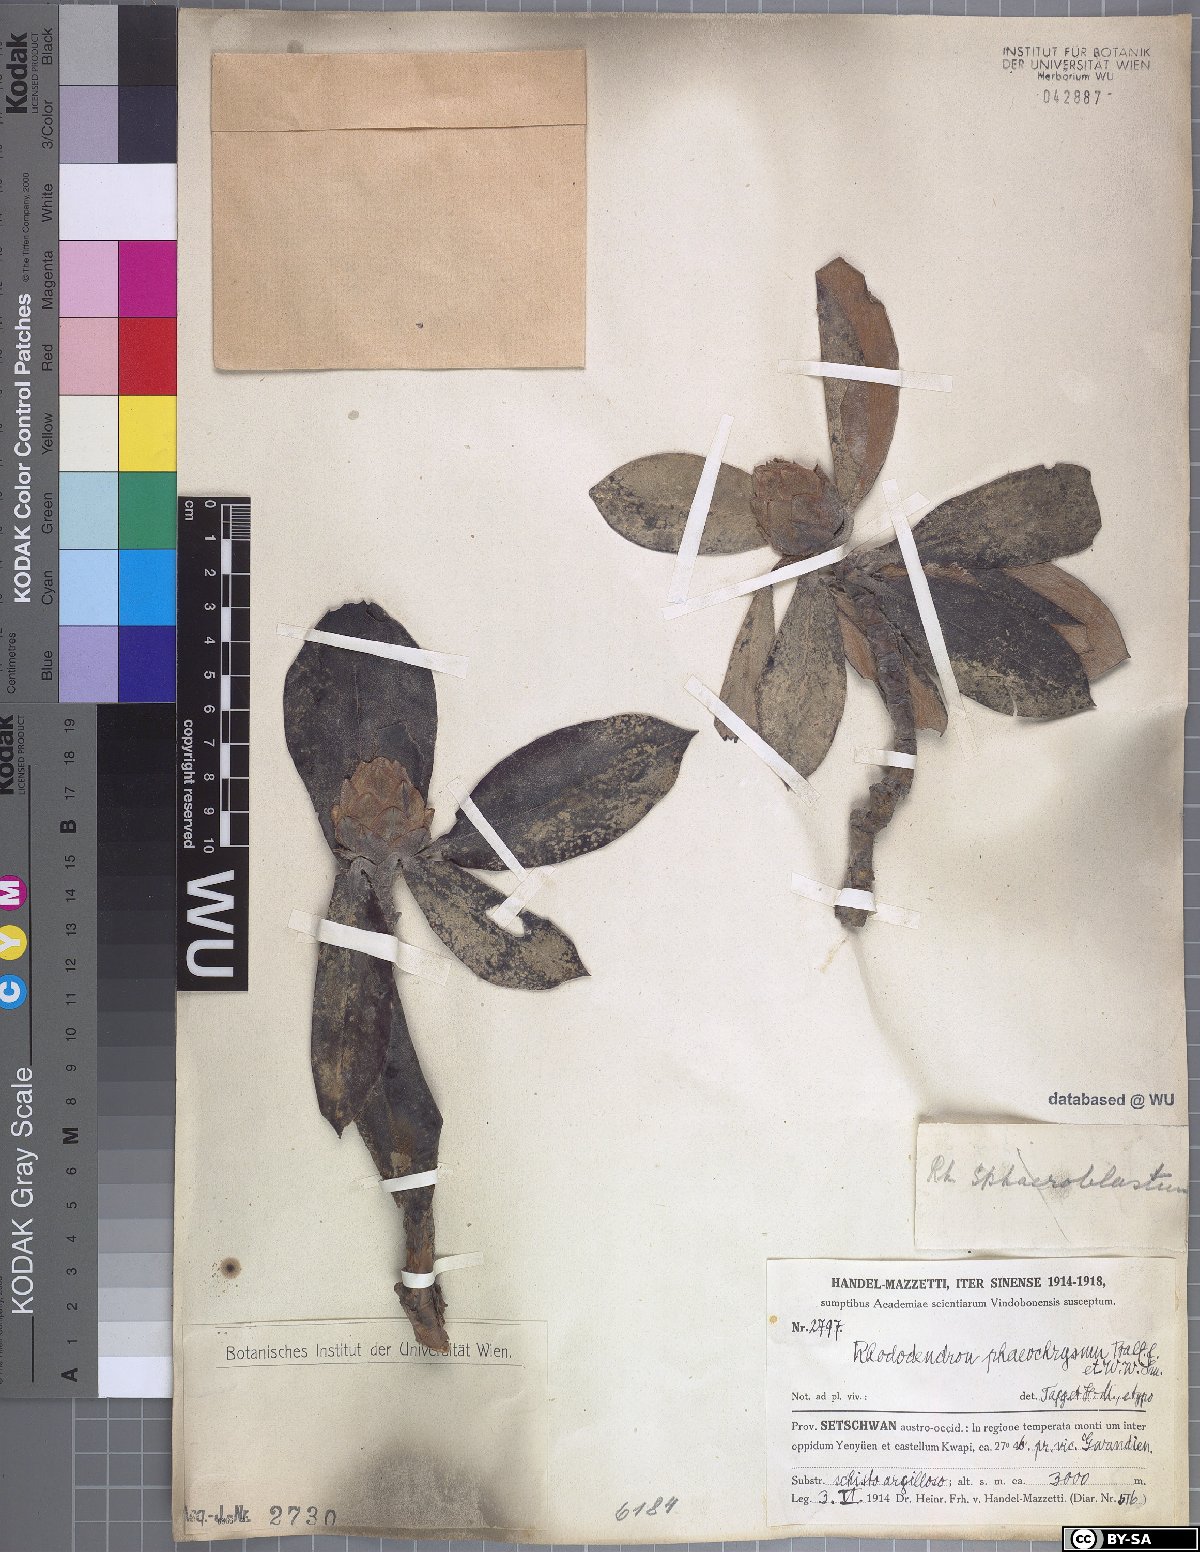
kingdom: Plantae
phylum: Tracheophyta
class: Magnoliopsida
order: Ericales
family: Ericaceae
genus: Rhododendron
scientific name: Rhododendron phaeochrysum
